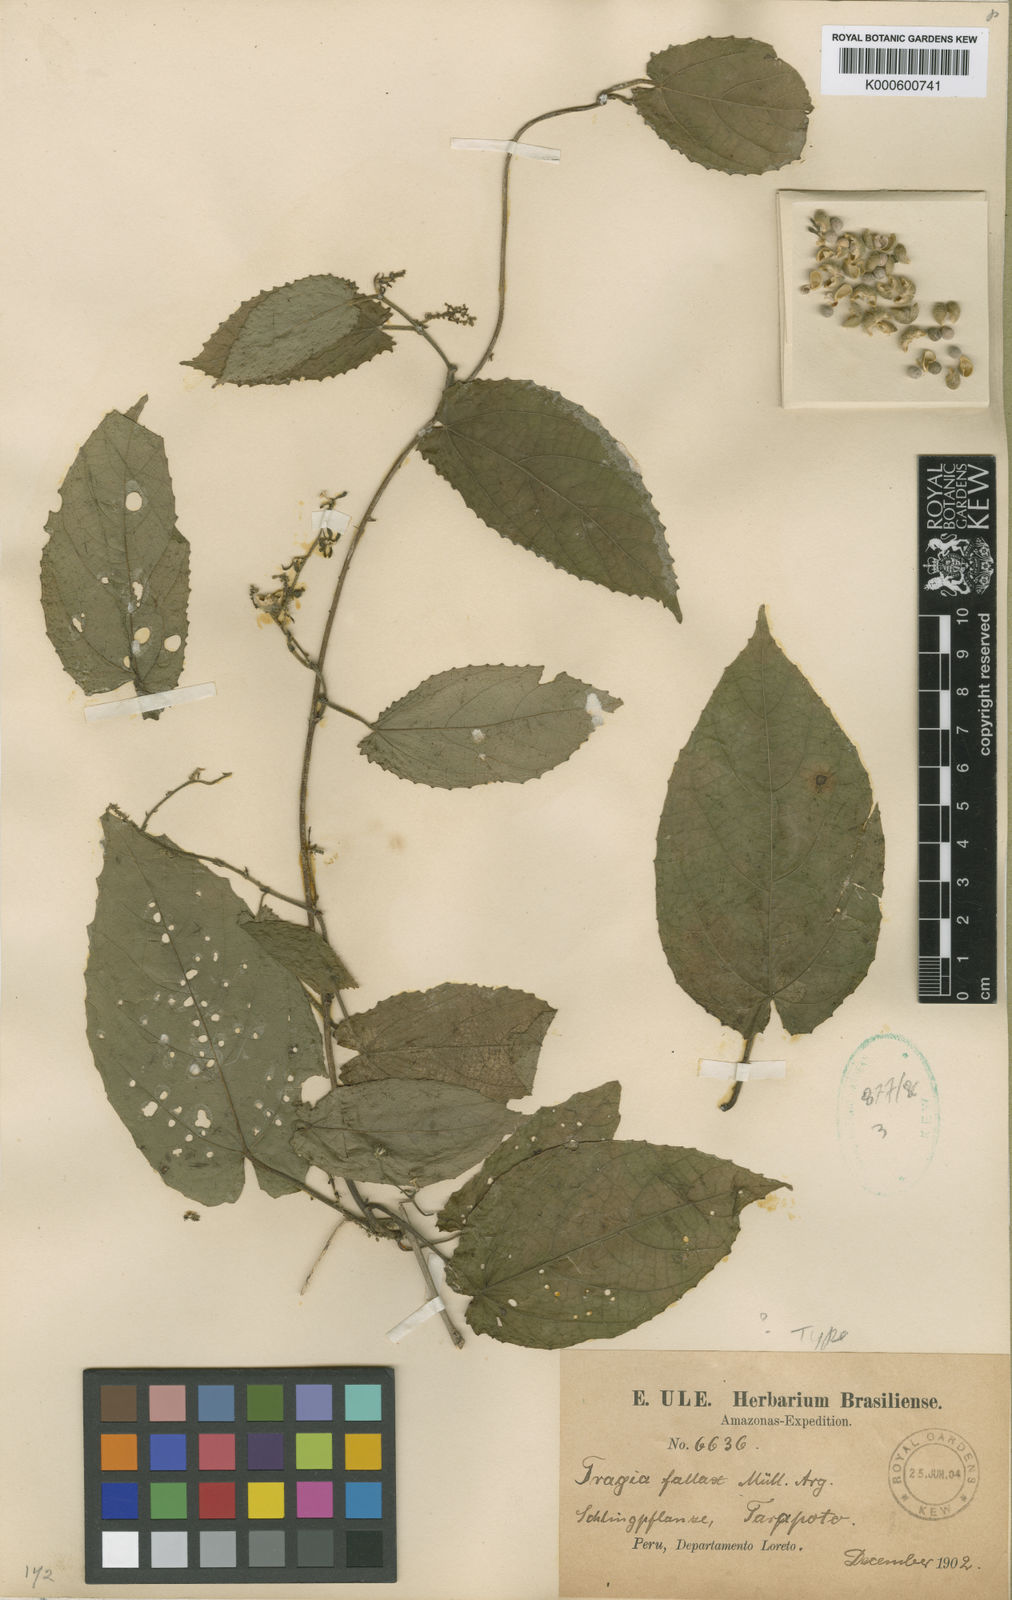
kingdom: Plantae
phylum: Tracheophyta
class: Magnoliopsida
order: Malpighiales
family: Euphorbiaceae
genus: Bia
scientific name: Bia
